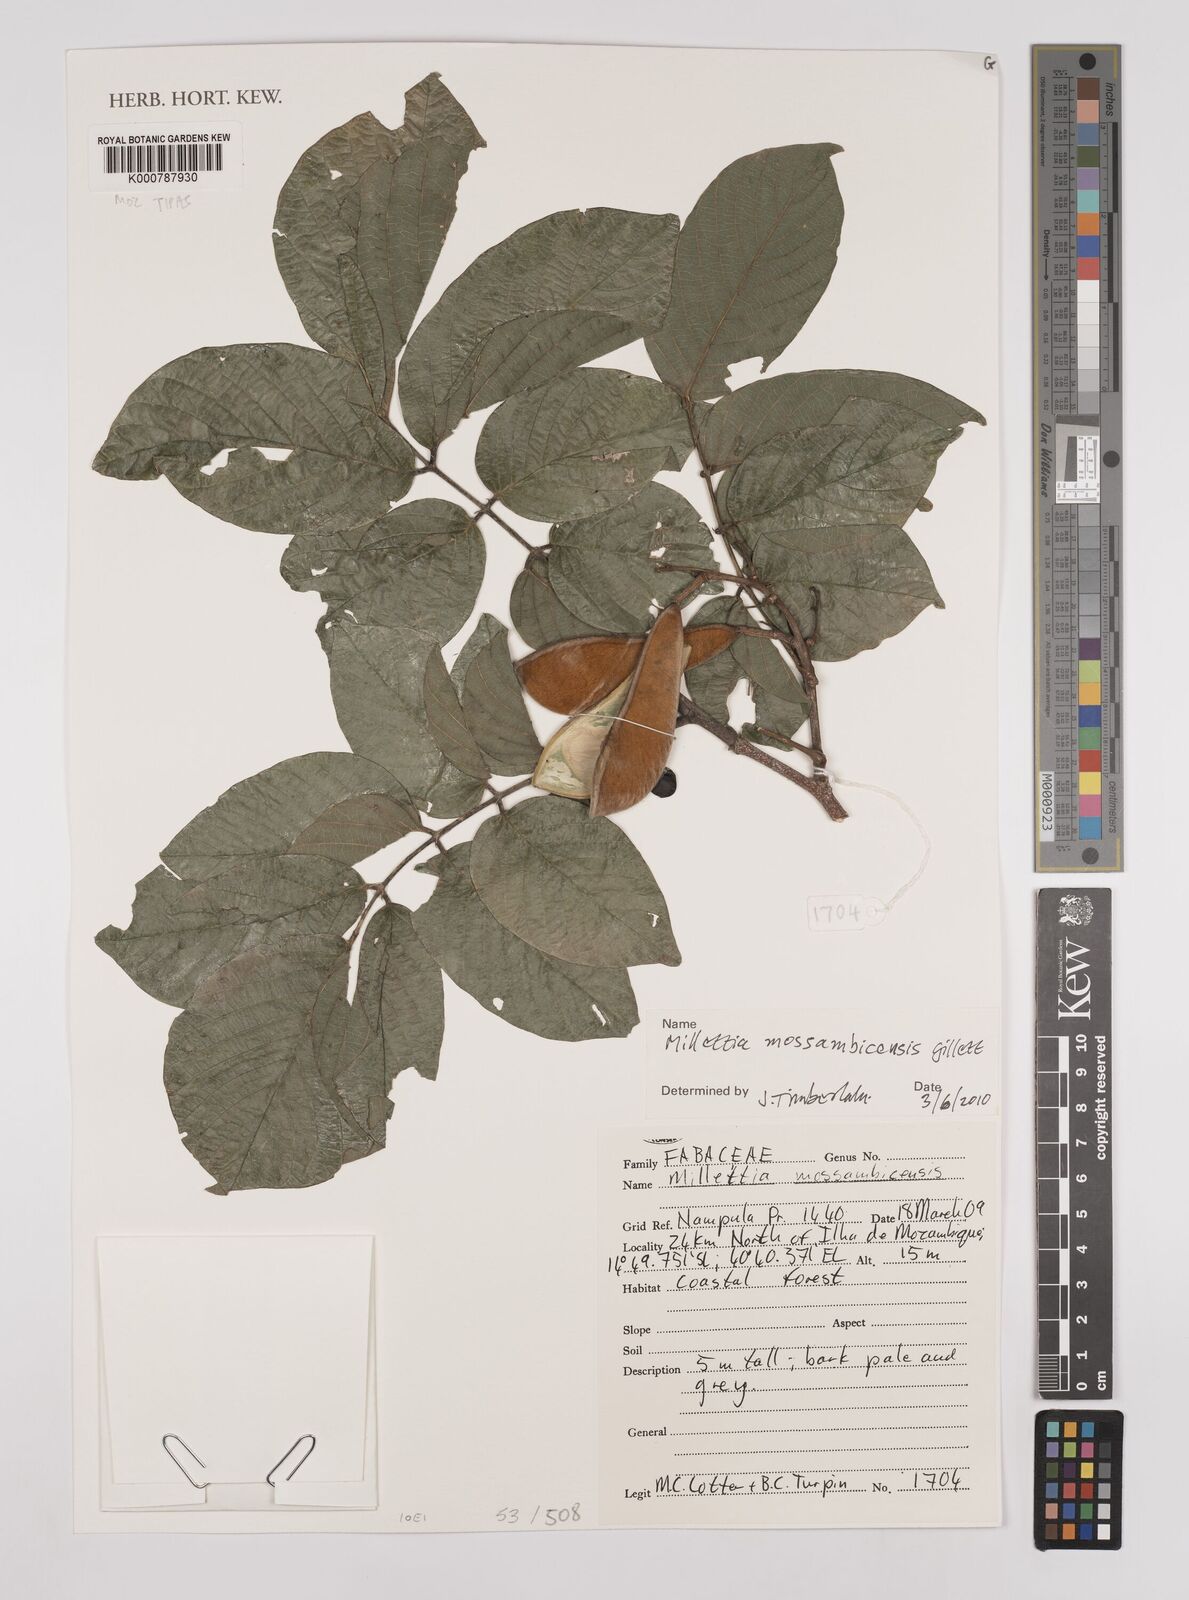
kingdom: Plantae
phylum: Tracheophyta
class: Magnoliopsida
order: Fabales
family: Fabaceae
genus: Millettia
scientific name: Millettia mossambicensis
